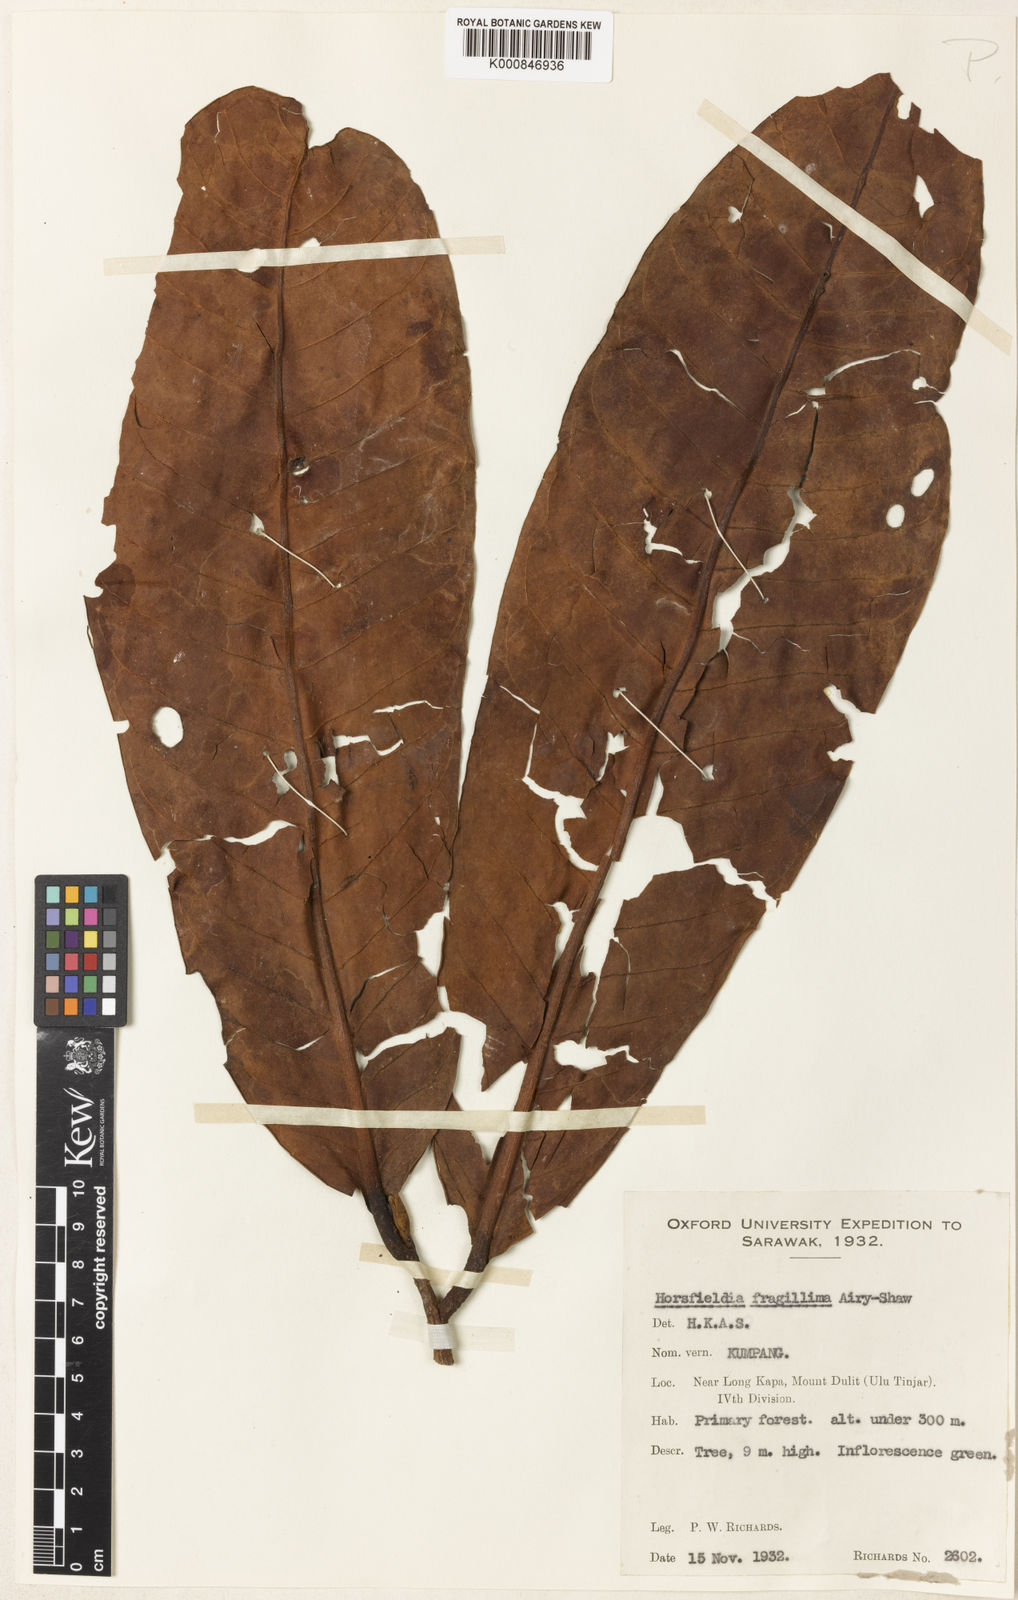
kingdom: Plantae
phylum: Tracheophyta
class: Magnoliopsida
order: Magnoliales
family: Myristicaceae
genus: Horsfieldia
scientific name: Horsfieldia fragillima
